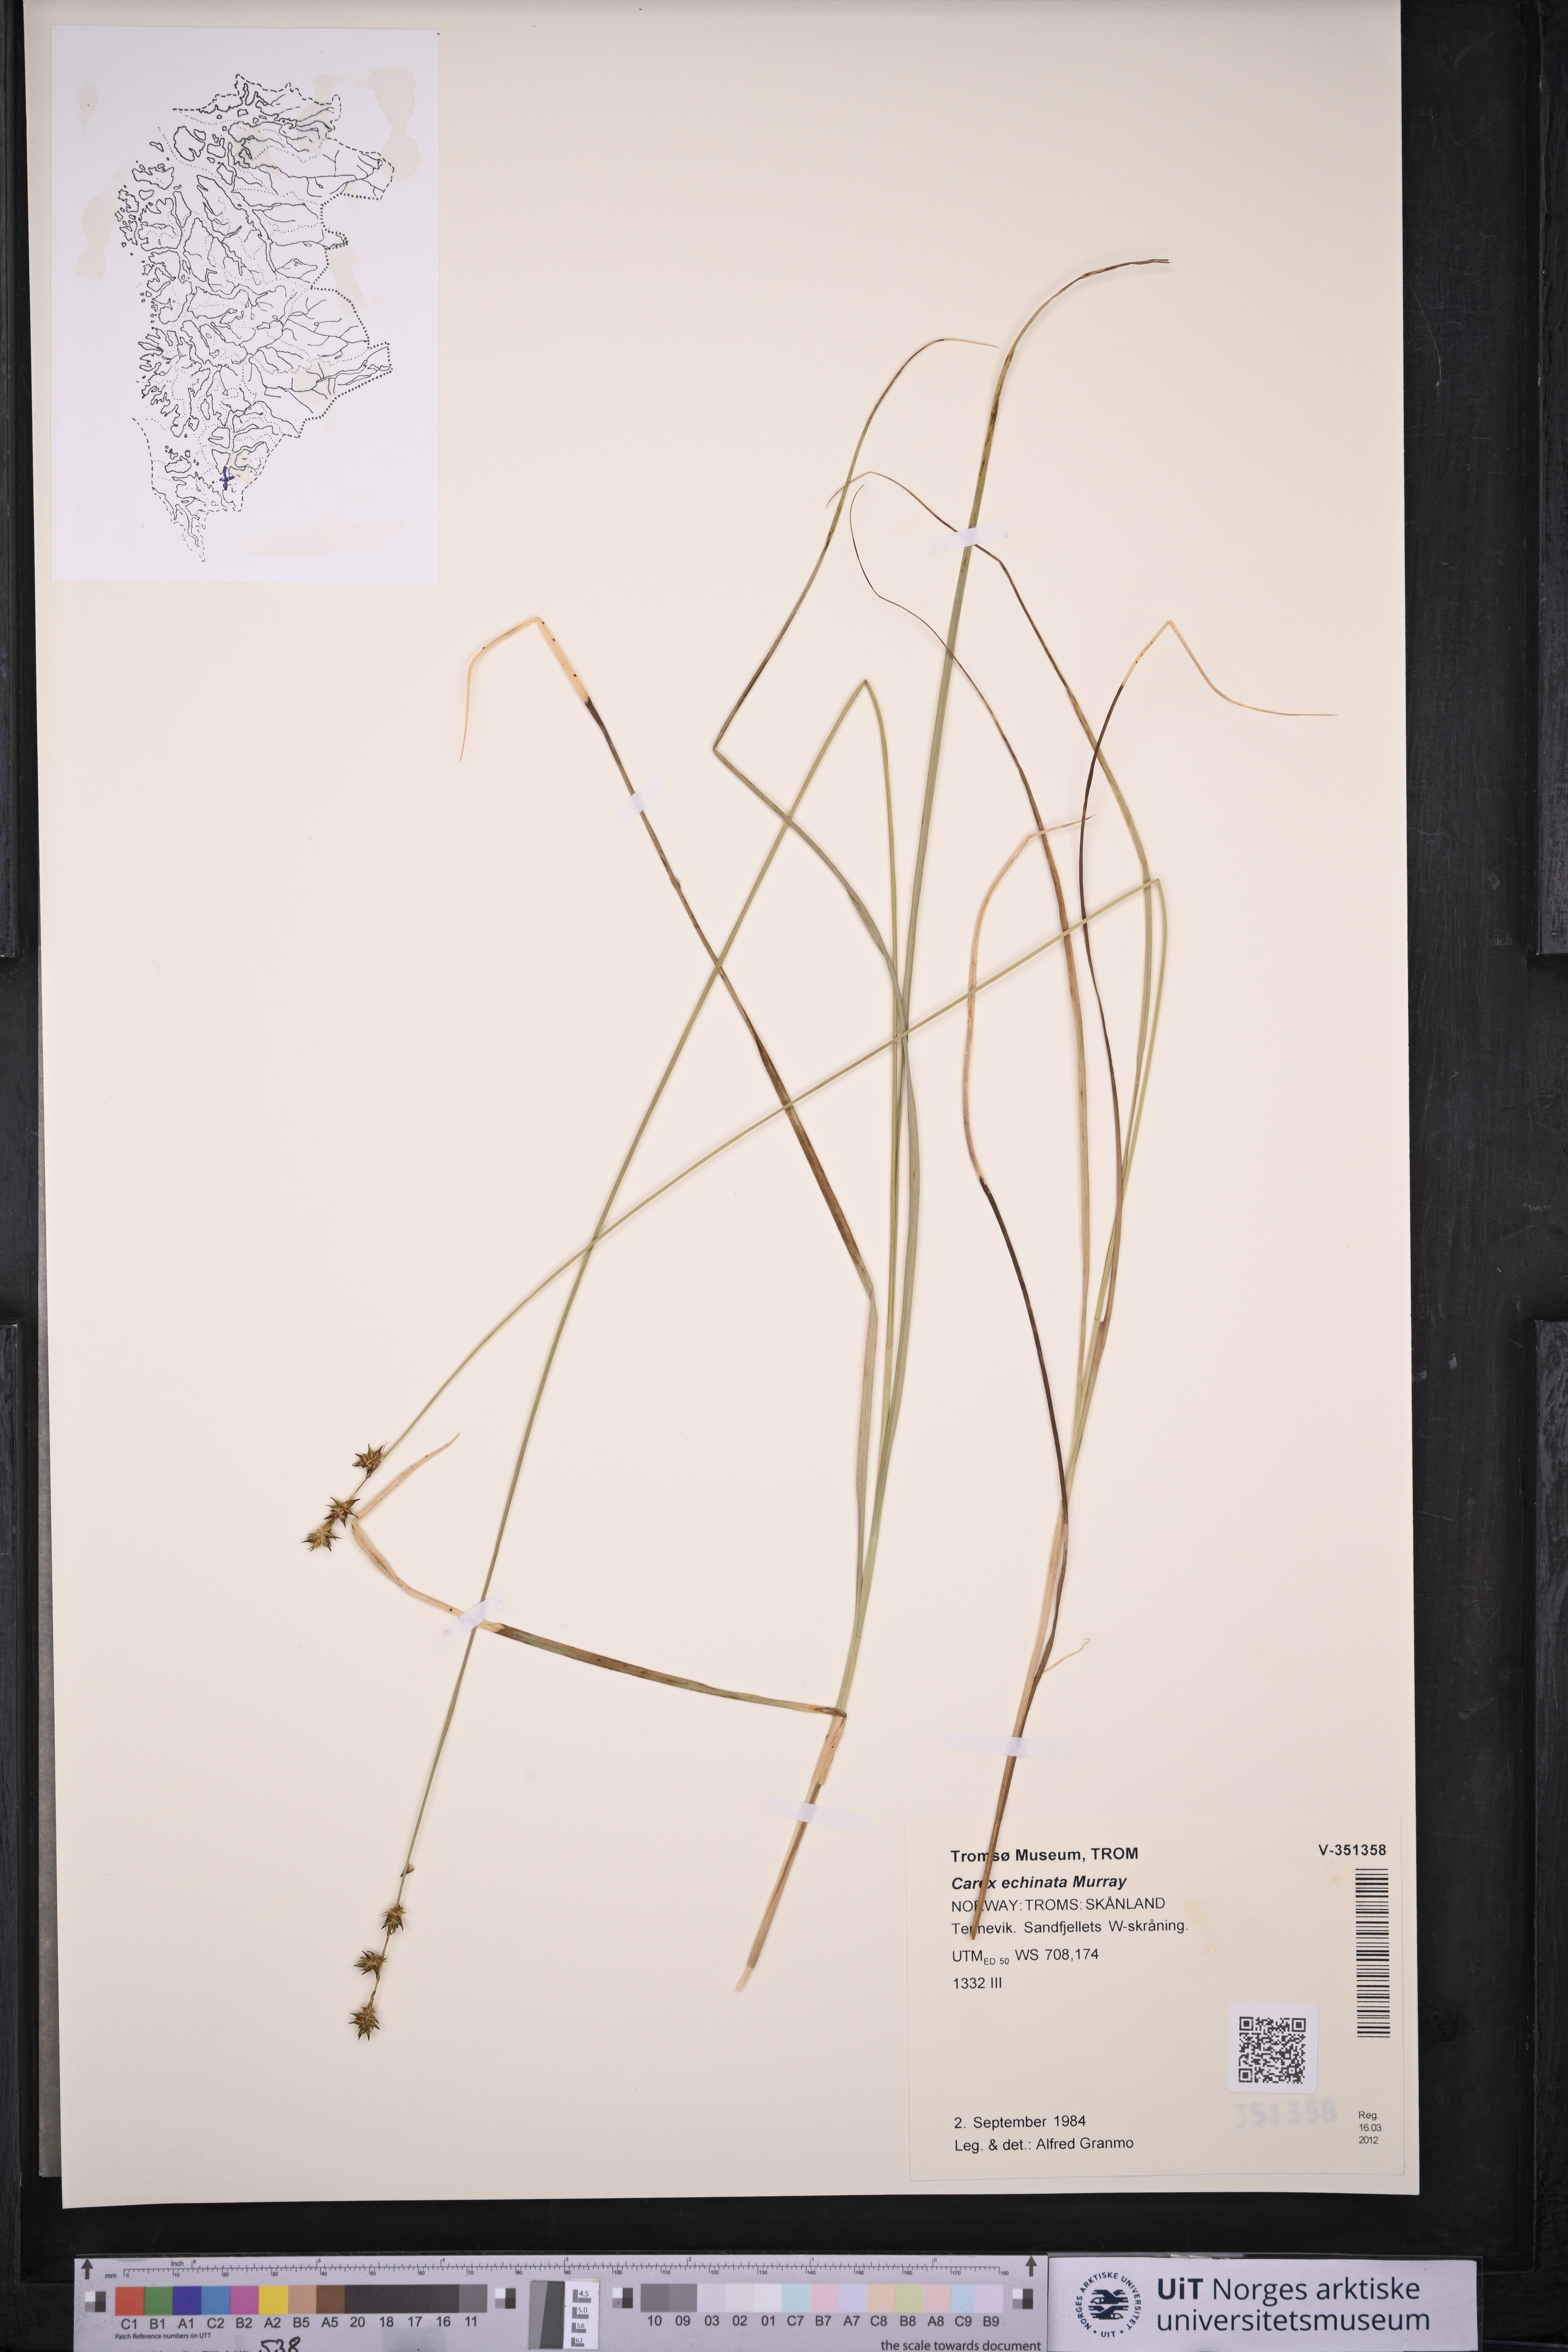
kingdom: Plantae
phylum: Tracheophyta
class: Liliopsida
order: Poales
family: Cyperaceae
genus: Carex
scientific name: Carex echinata
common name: Star sedge
